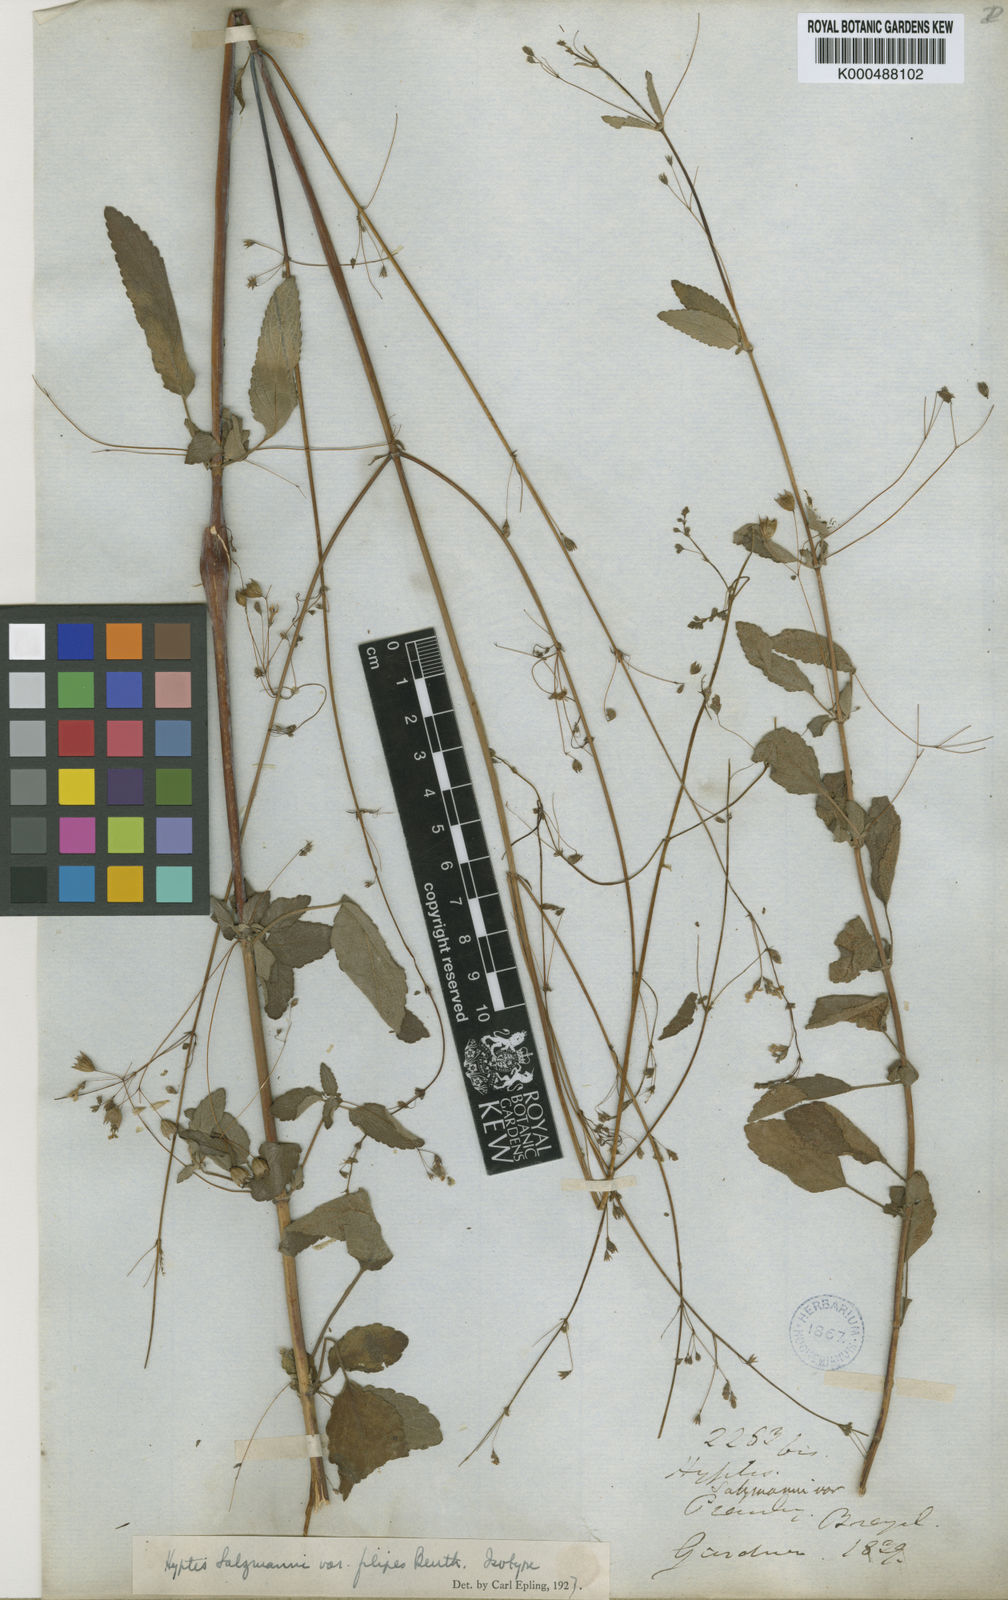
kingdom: Plantae
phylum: Tracheophyta
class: Magnoliopsida
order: Lamiales
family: Lamiaceae
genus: Hypenia
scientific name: Hypenia salzmannii
